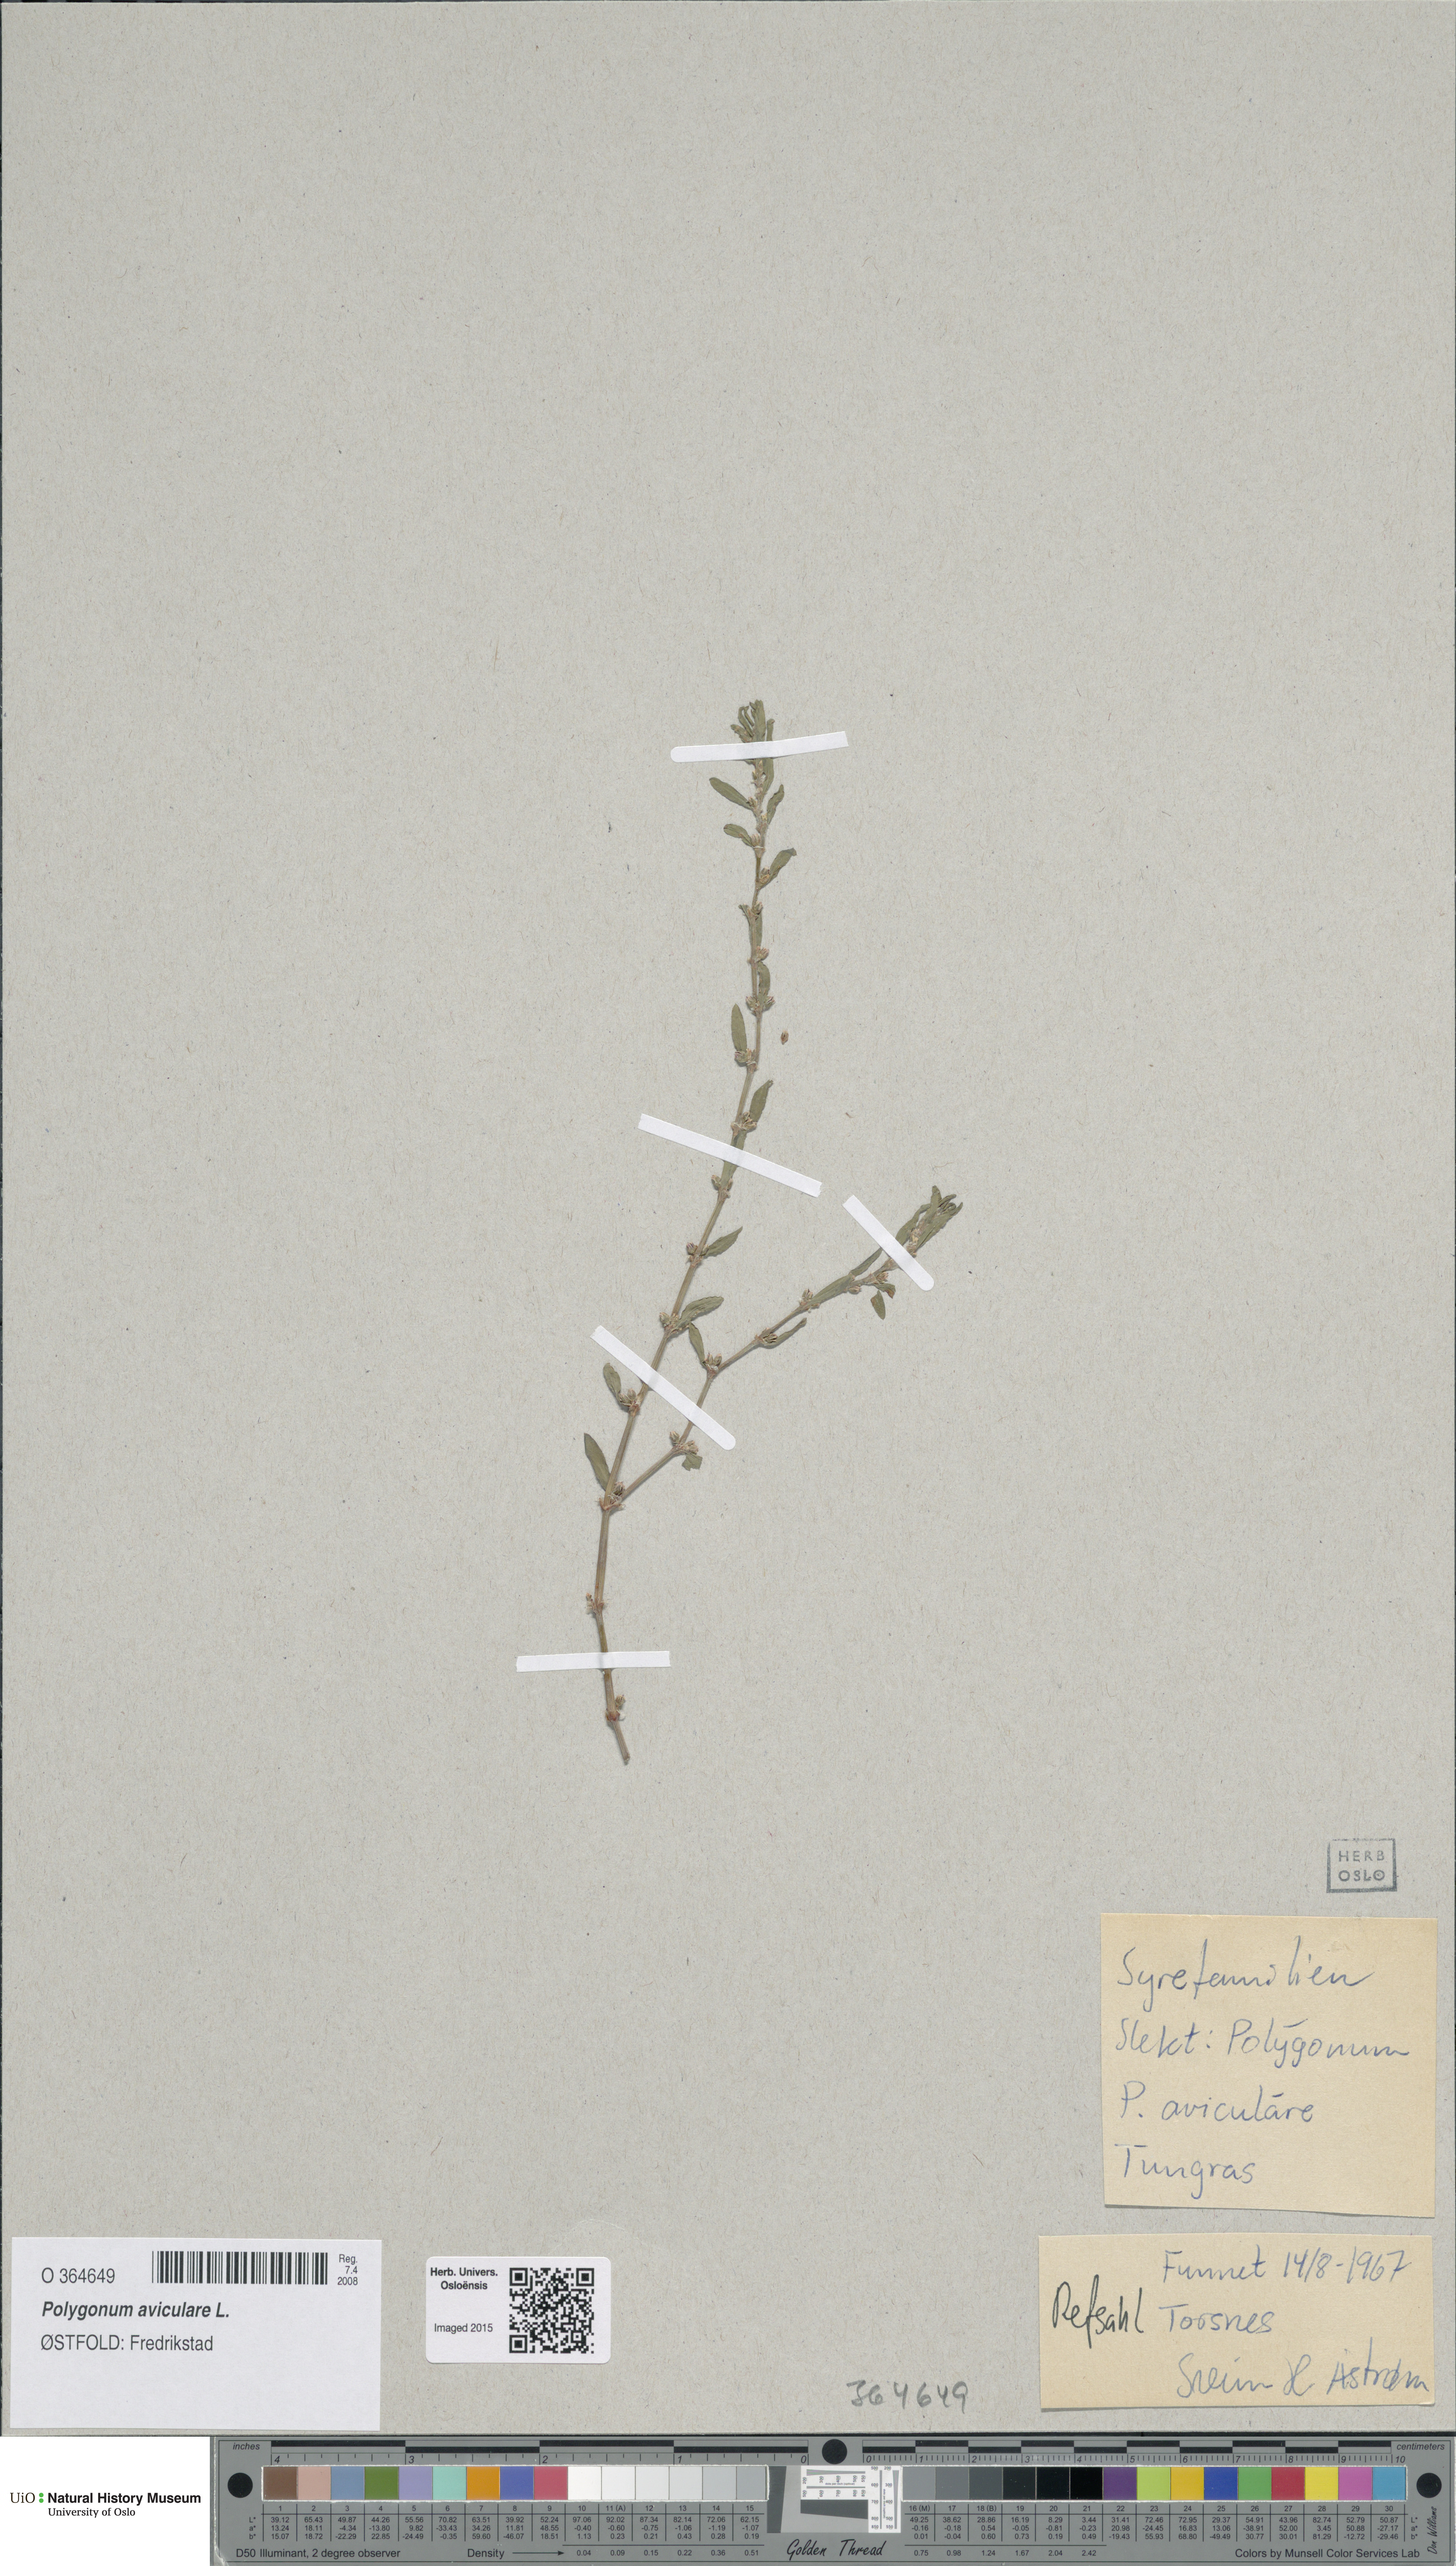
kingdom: Plantae
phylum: Tracheophyta
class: Magnoliopsida
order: Caryophyllales
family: Polygonaceae
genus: Polygonum
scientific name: Polygonum aviculare
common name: Prostrate knotweed
